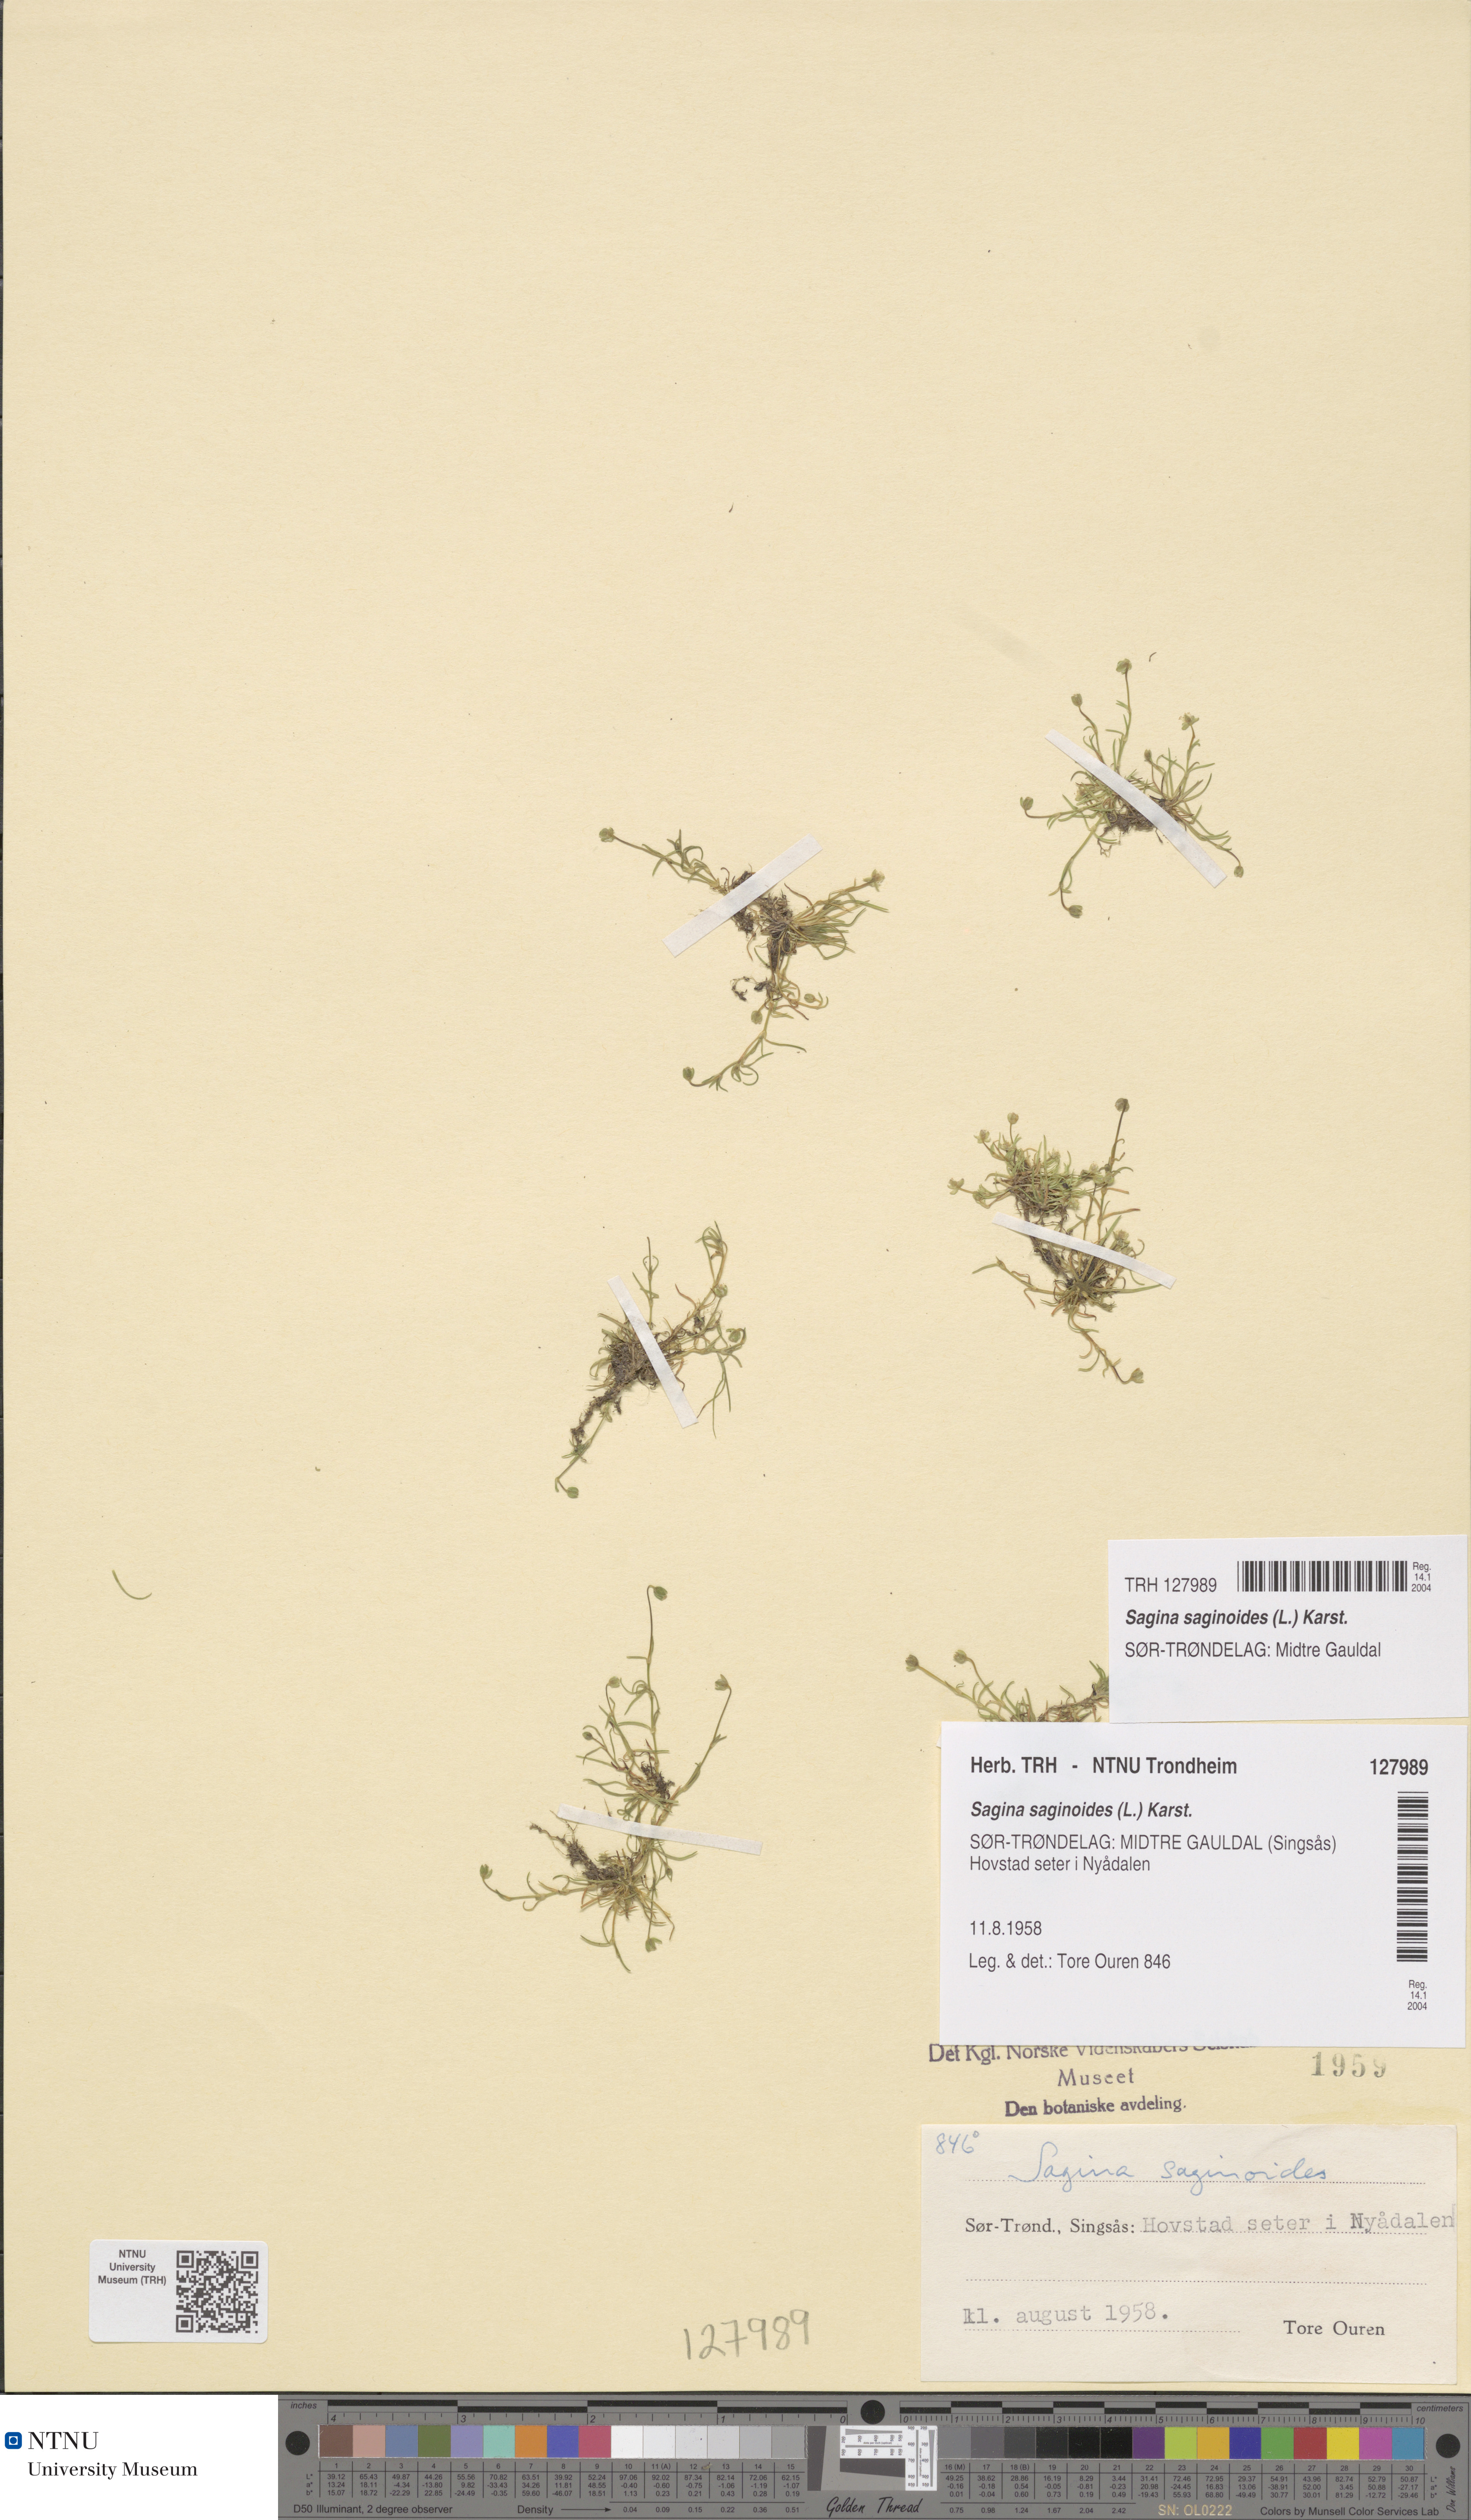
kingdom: Plantae
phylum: Tracheophyta
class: Magnoliopsida
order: Caryophyllales
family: Caryophyllaceae
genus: Sagina
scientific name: Sagina saginoides
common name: Alpine pearlwort
